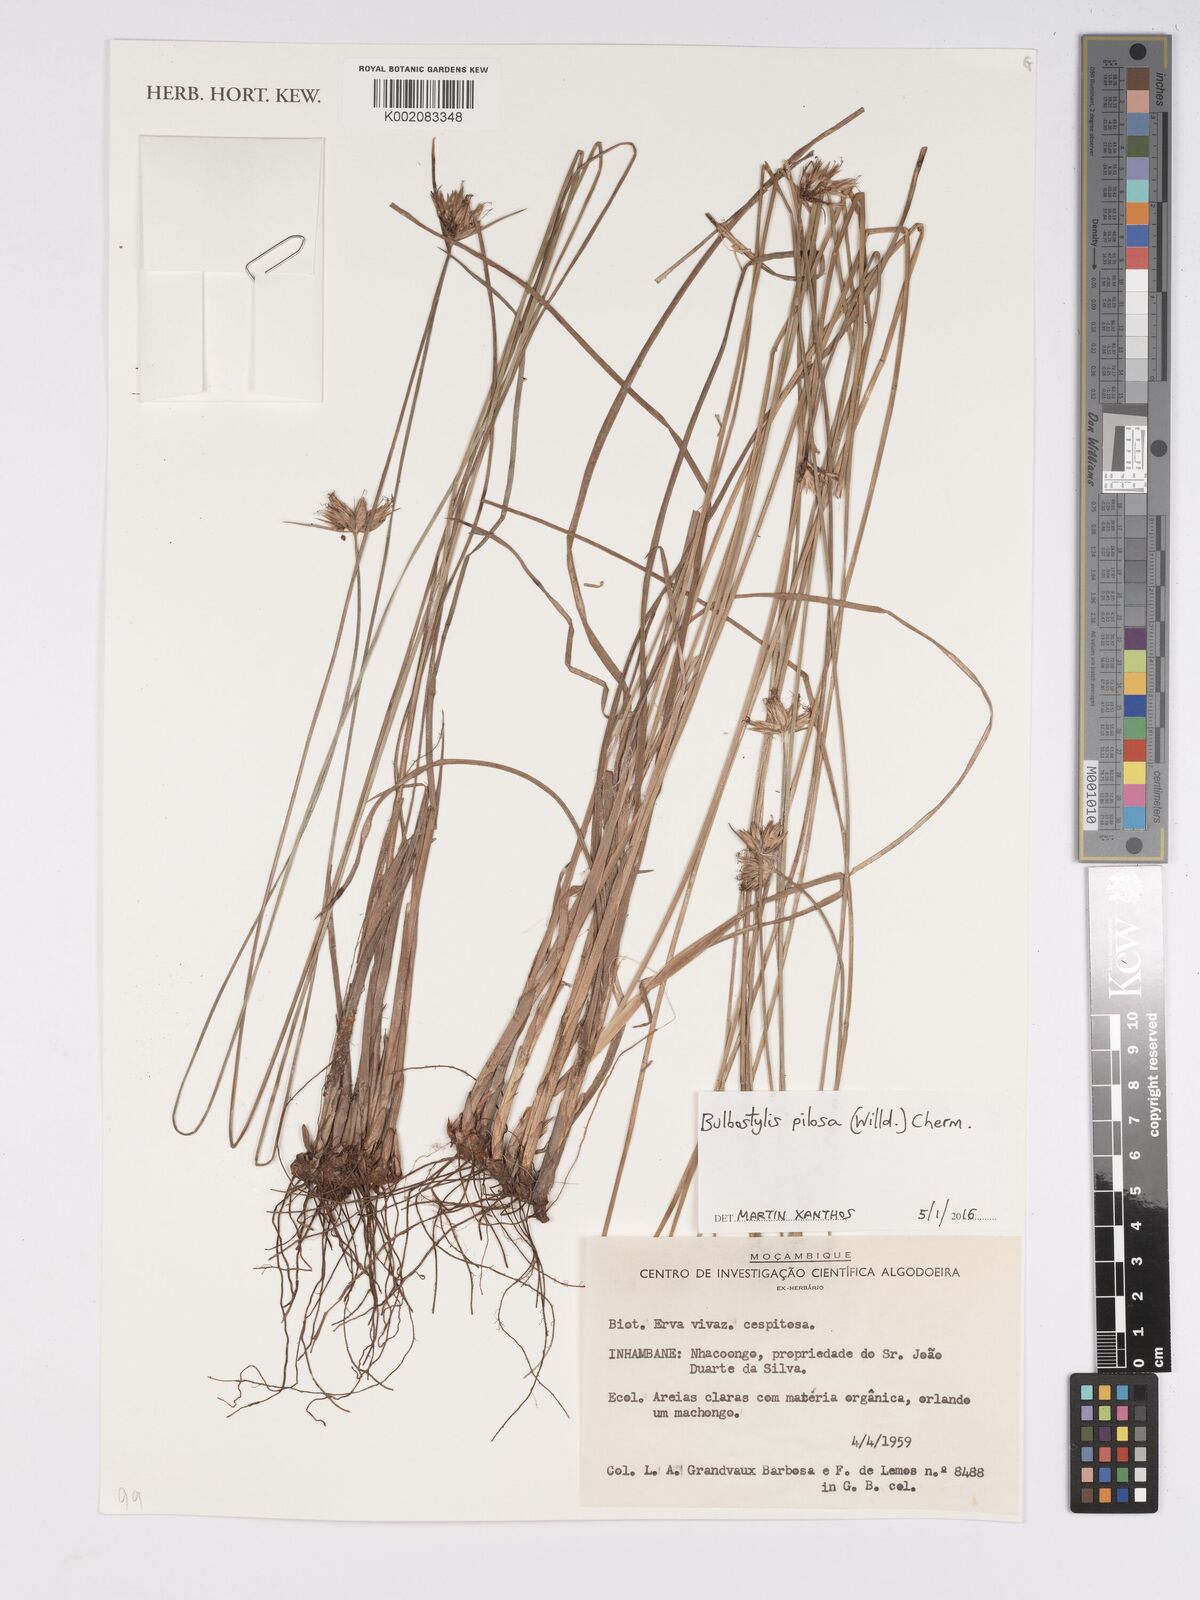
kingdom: Plantae
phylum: Tracheophyta
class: Liliopsida
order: Poales
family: Cyperaceae
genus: Bulbostylis
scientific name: Bulbostylis pilosa
